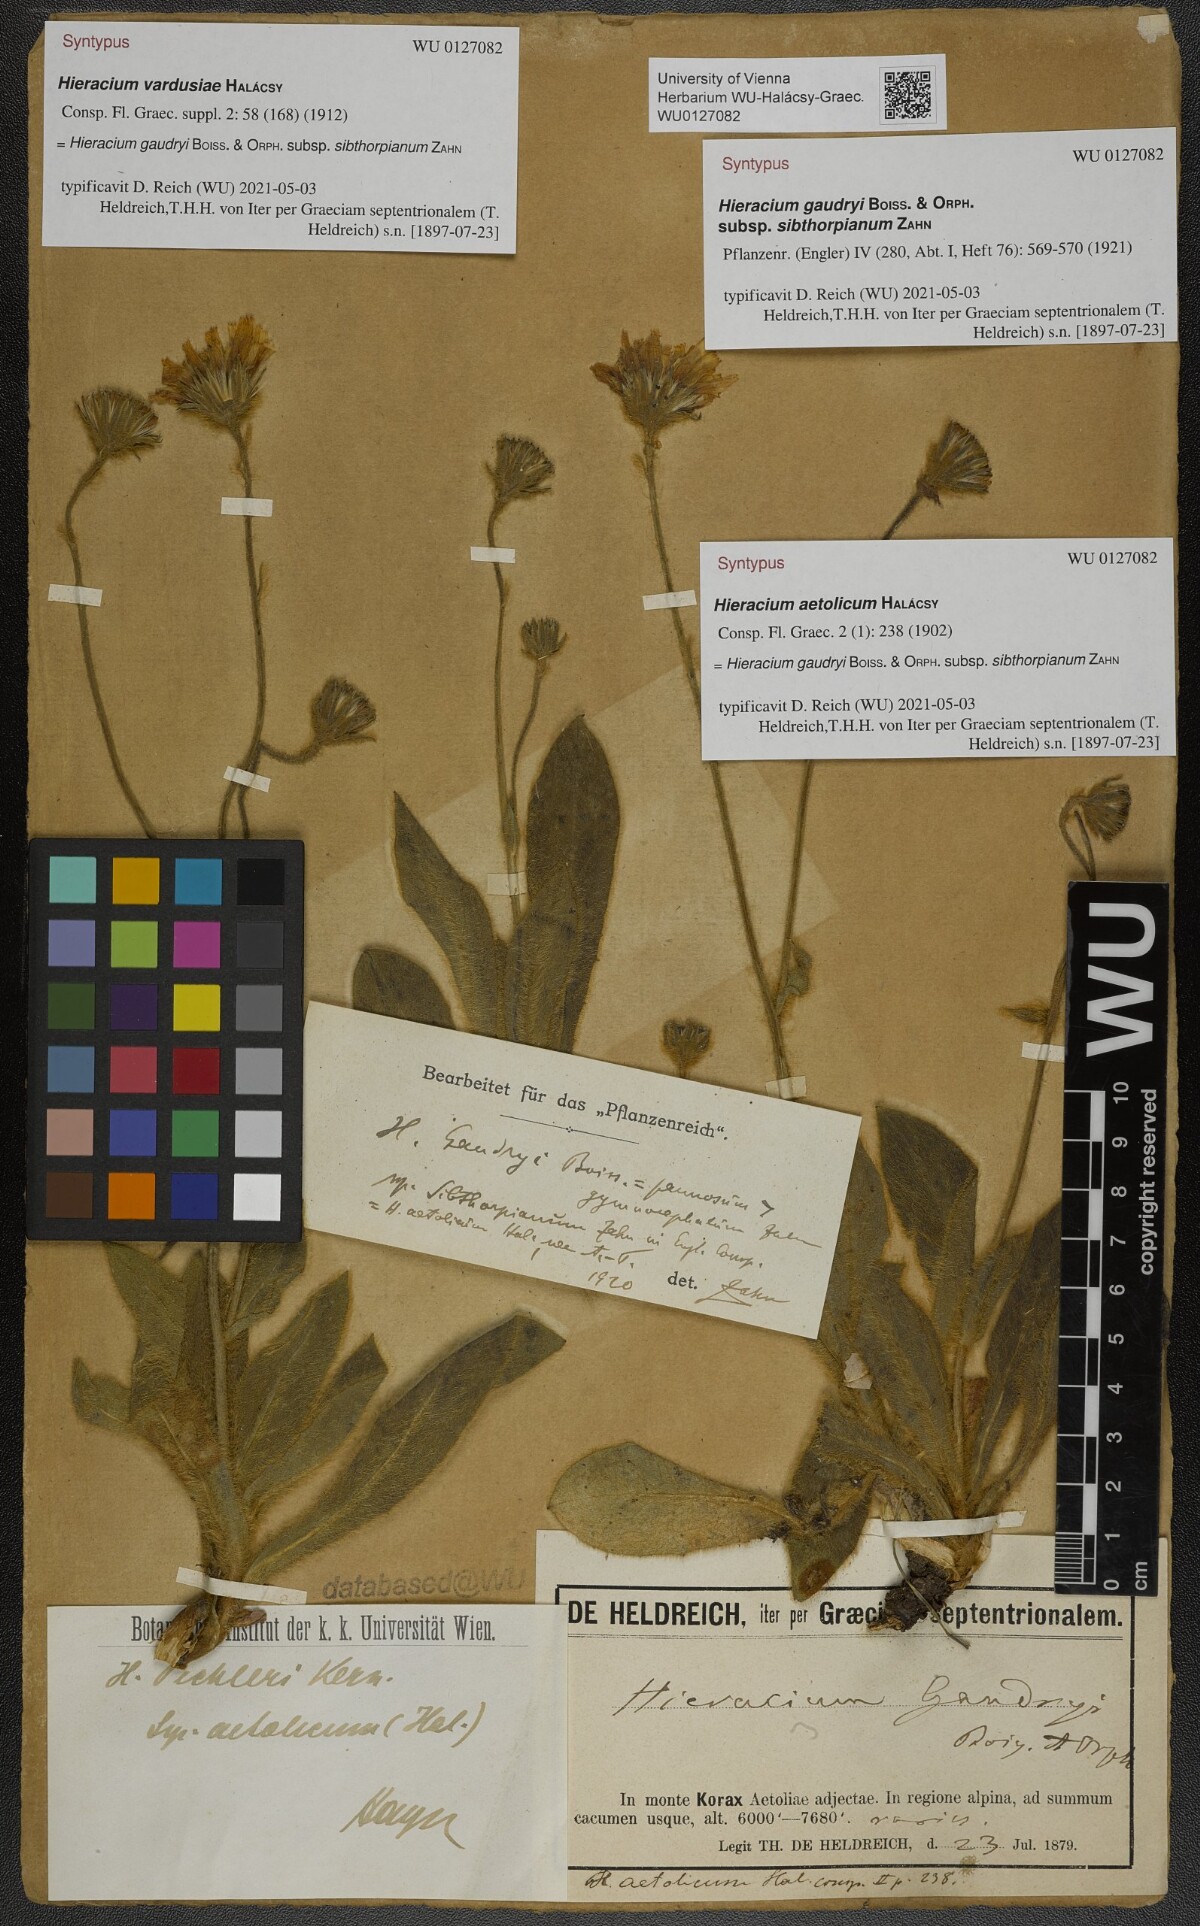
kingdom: Plantae
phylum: Tracheophyta
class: Magnoliopsida
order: Asterales
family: Asteraceae
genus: Hieracium
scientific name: Hieracium gaudryi
